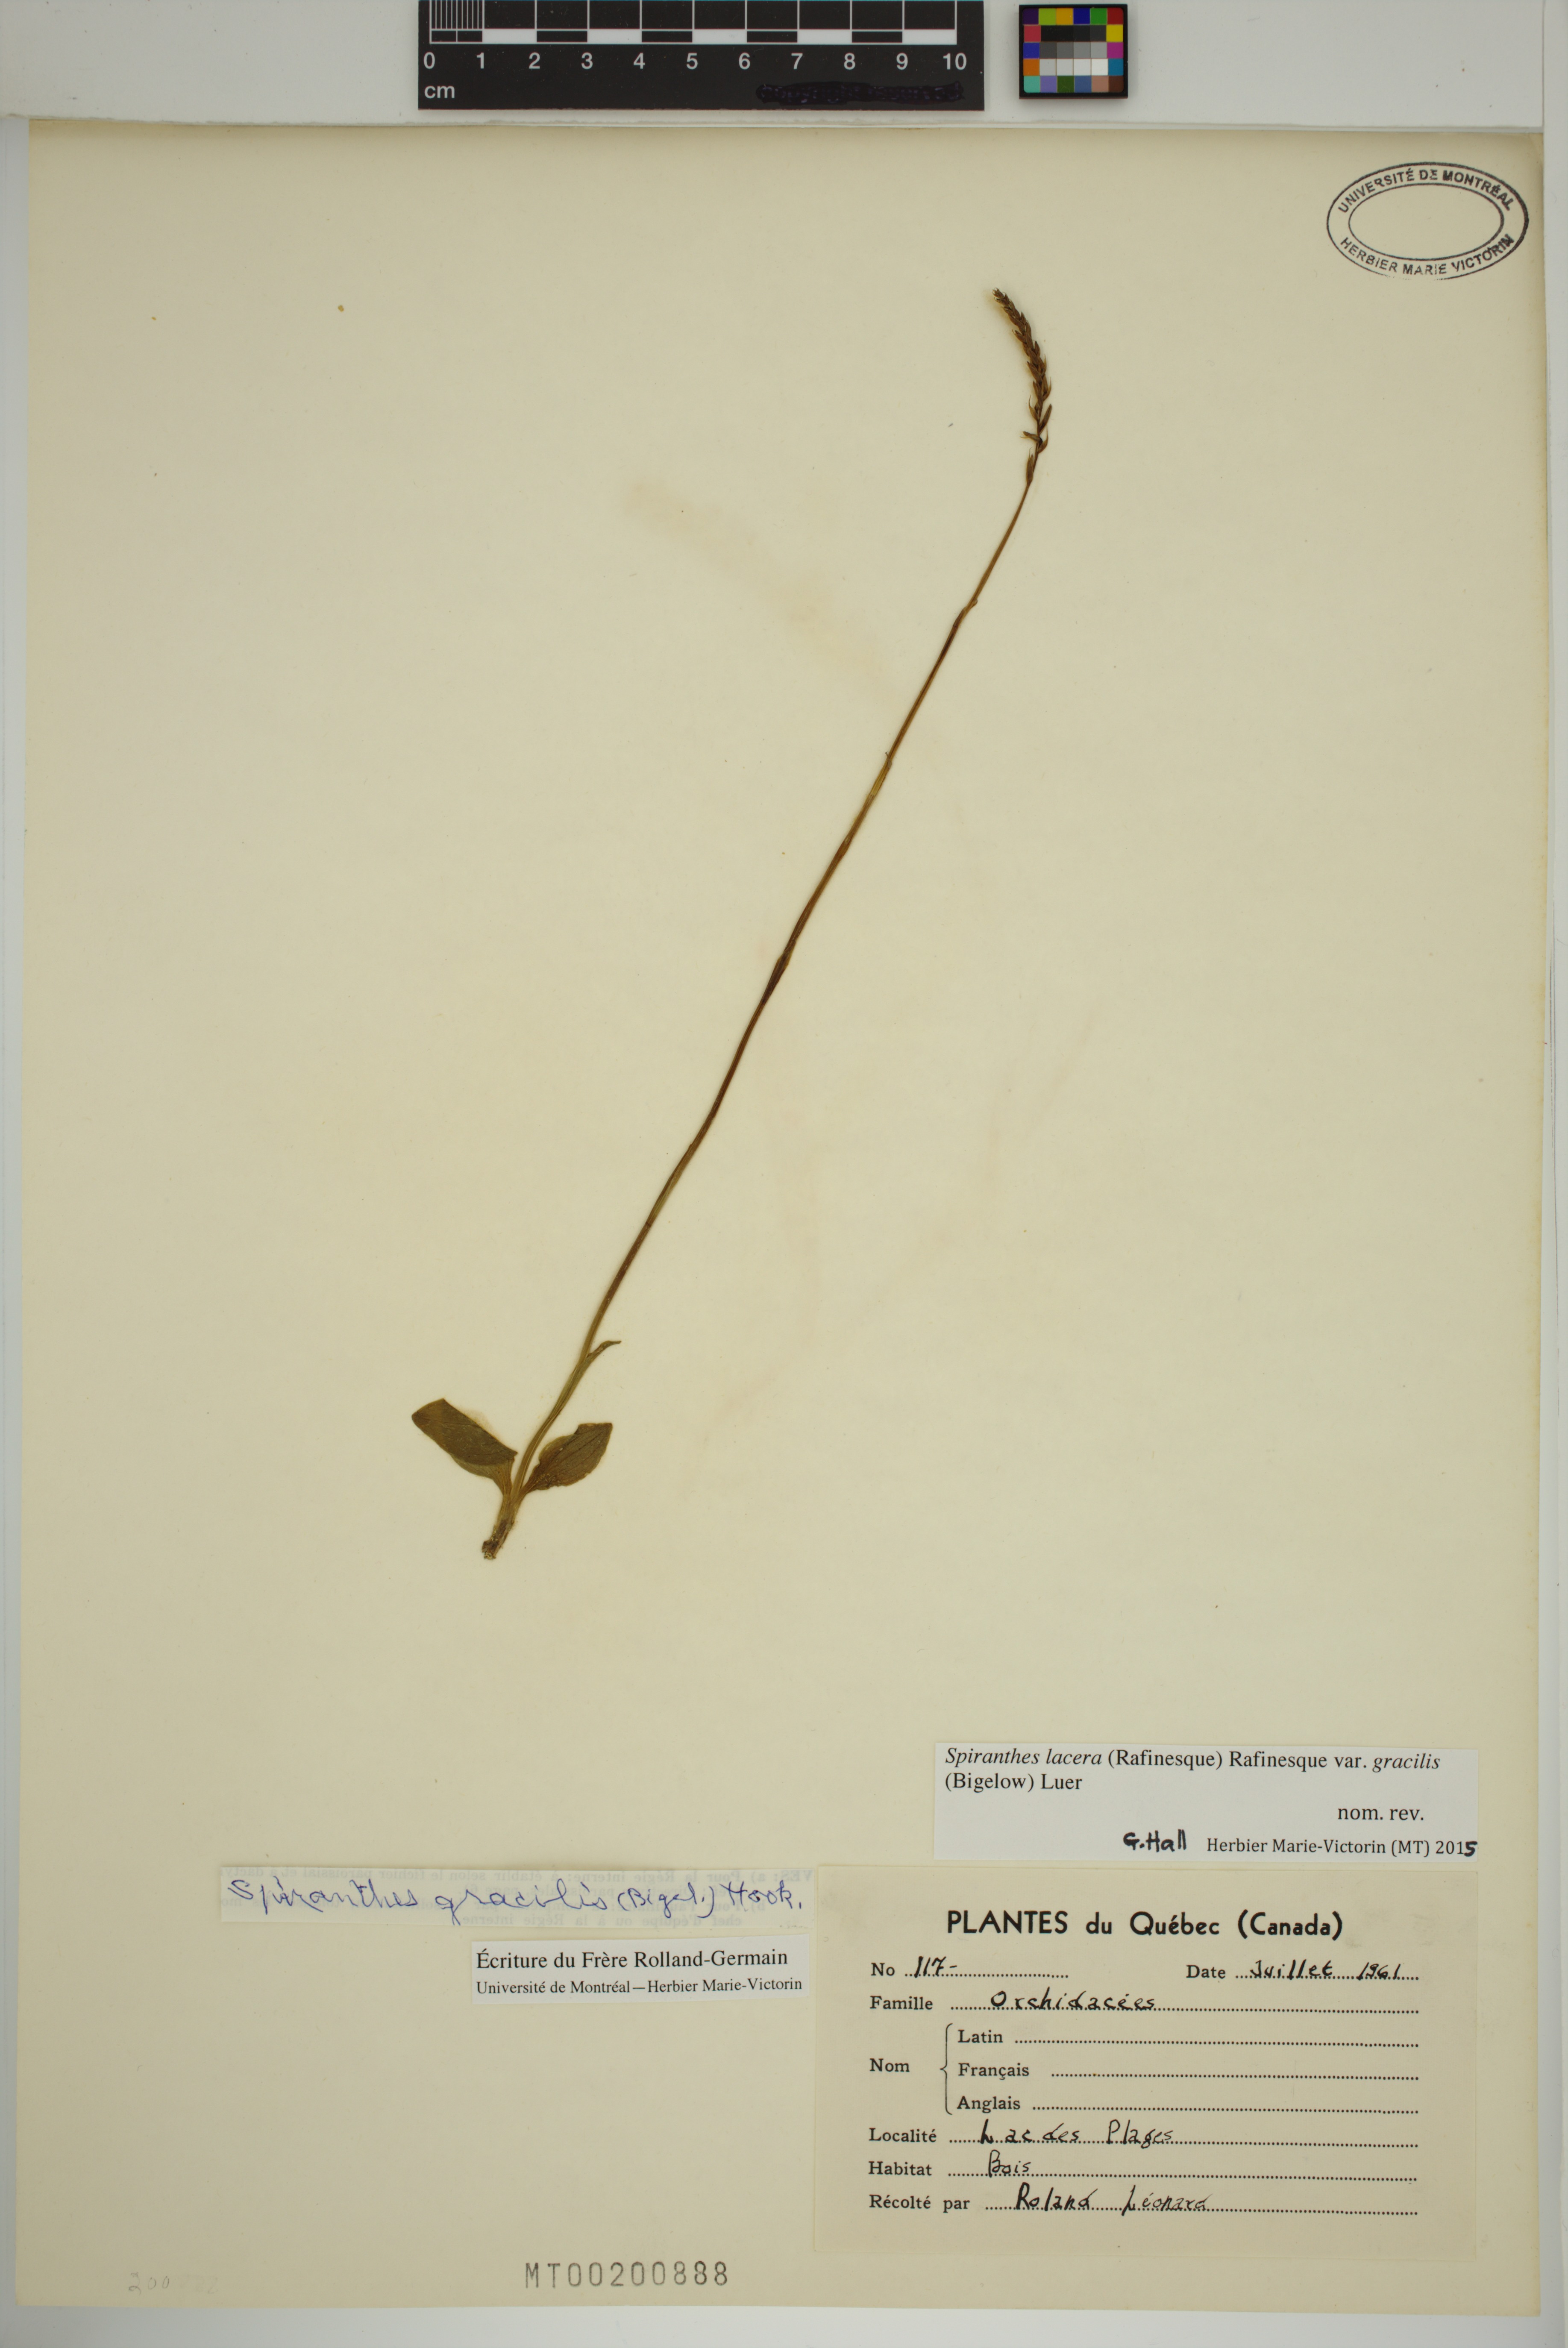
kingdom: Plantae
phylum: Tracheophyta
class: Liliopsida
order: Asparagales
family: Orchidaceae
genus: Spiranthes
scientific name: Spiranthes lacera
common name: Northern slender ladies'-tresses
